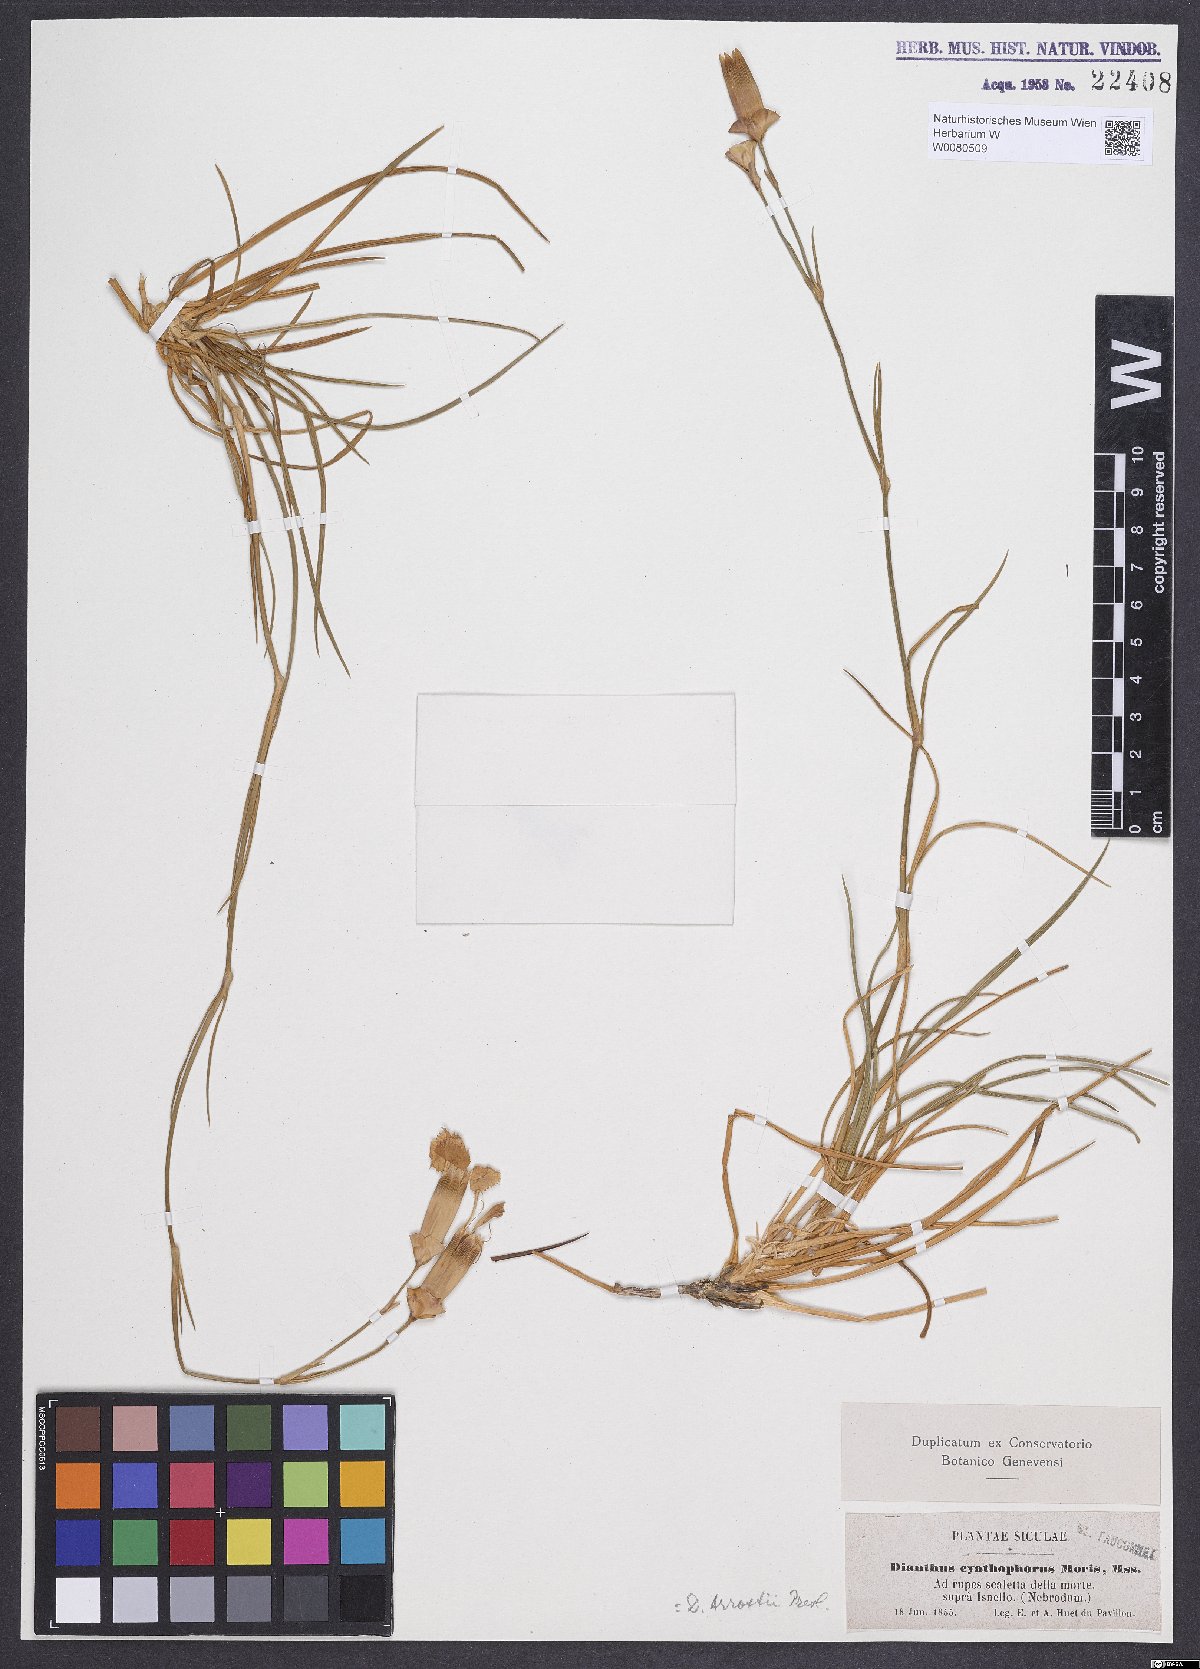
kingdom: Plantae
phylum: Tracheophyta
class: Magnoliopsida
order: Caryophyllales
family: Caryophyllaceae
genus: Dianthus
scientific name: Dianthus arrostii
